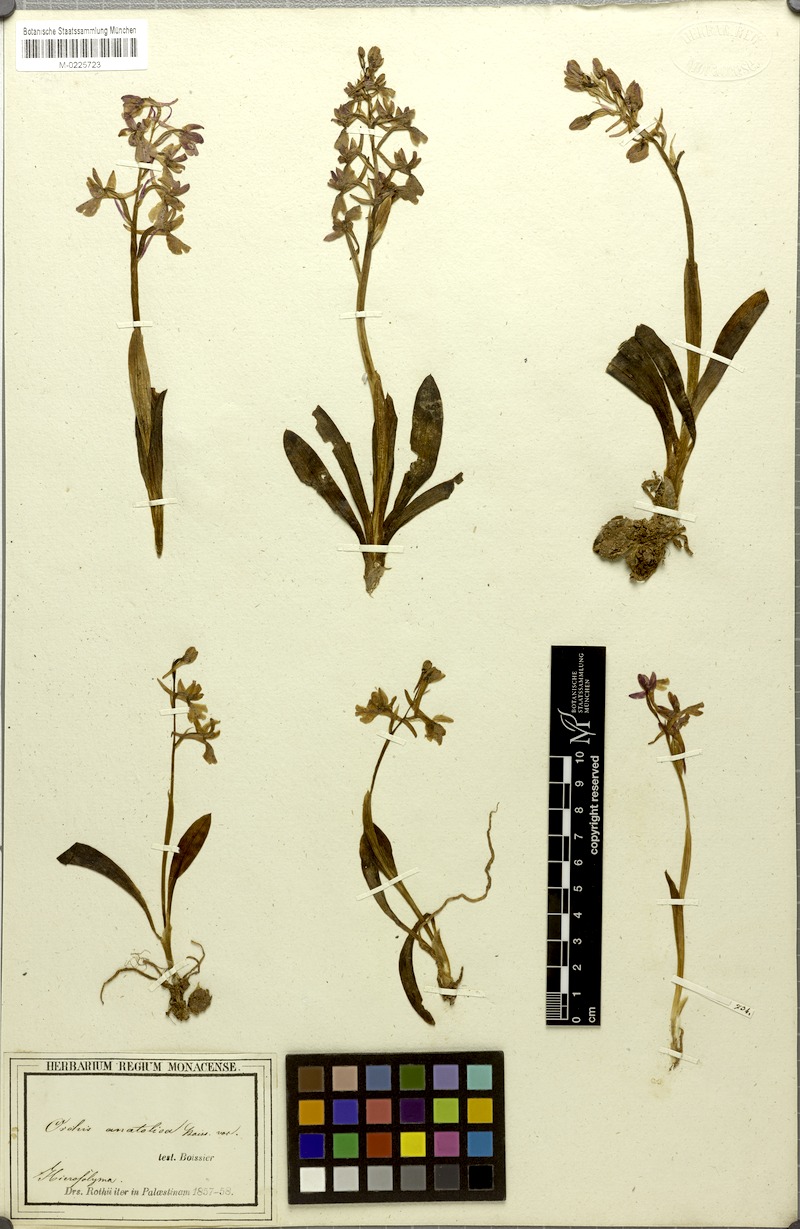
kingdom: Plantae
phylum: Tracheophyta
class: Liliopsida
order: Asparagales
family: Orchidaceae
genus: Orchis
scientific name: Orchis anatolica
